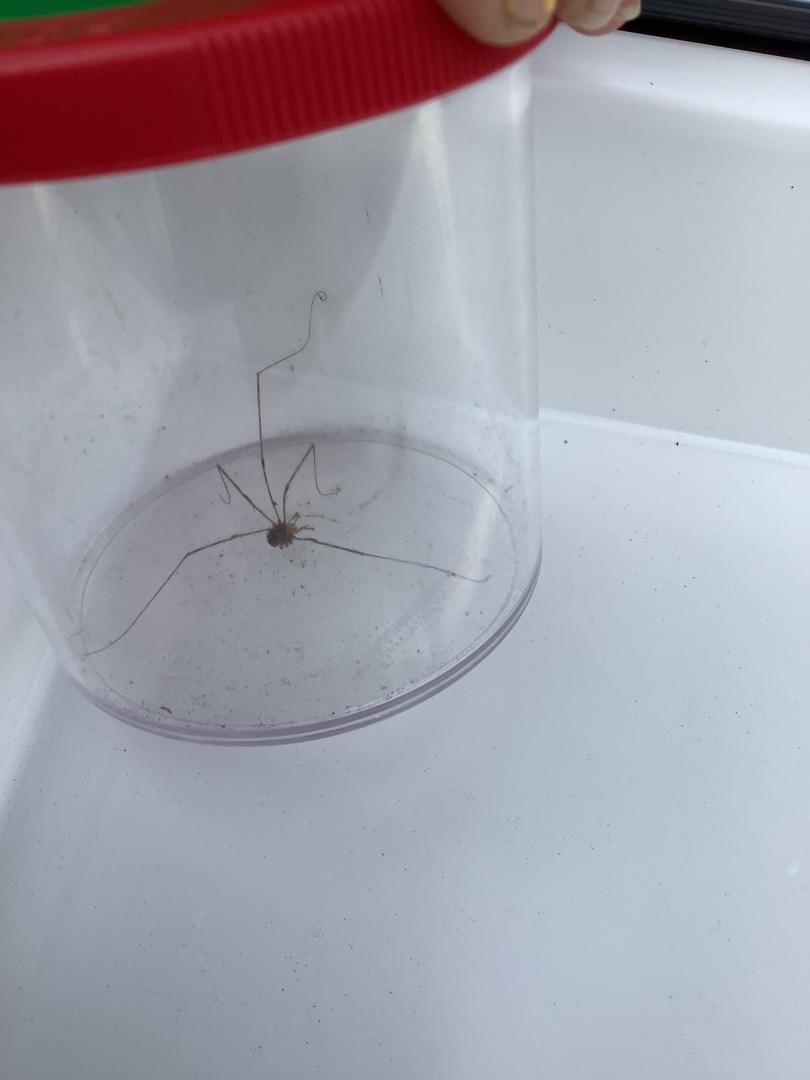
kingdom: Animalia
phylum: Arthropoda
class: Arachnida
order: Opiliones
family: Phalangiidae
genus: Dicranopalpus
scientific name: Dicranopalpus ramosus
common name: Gaffelmejer
